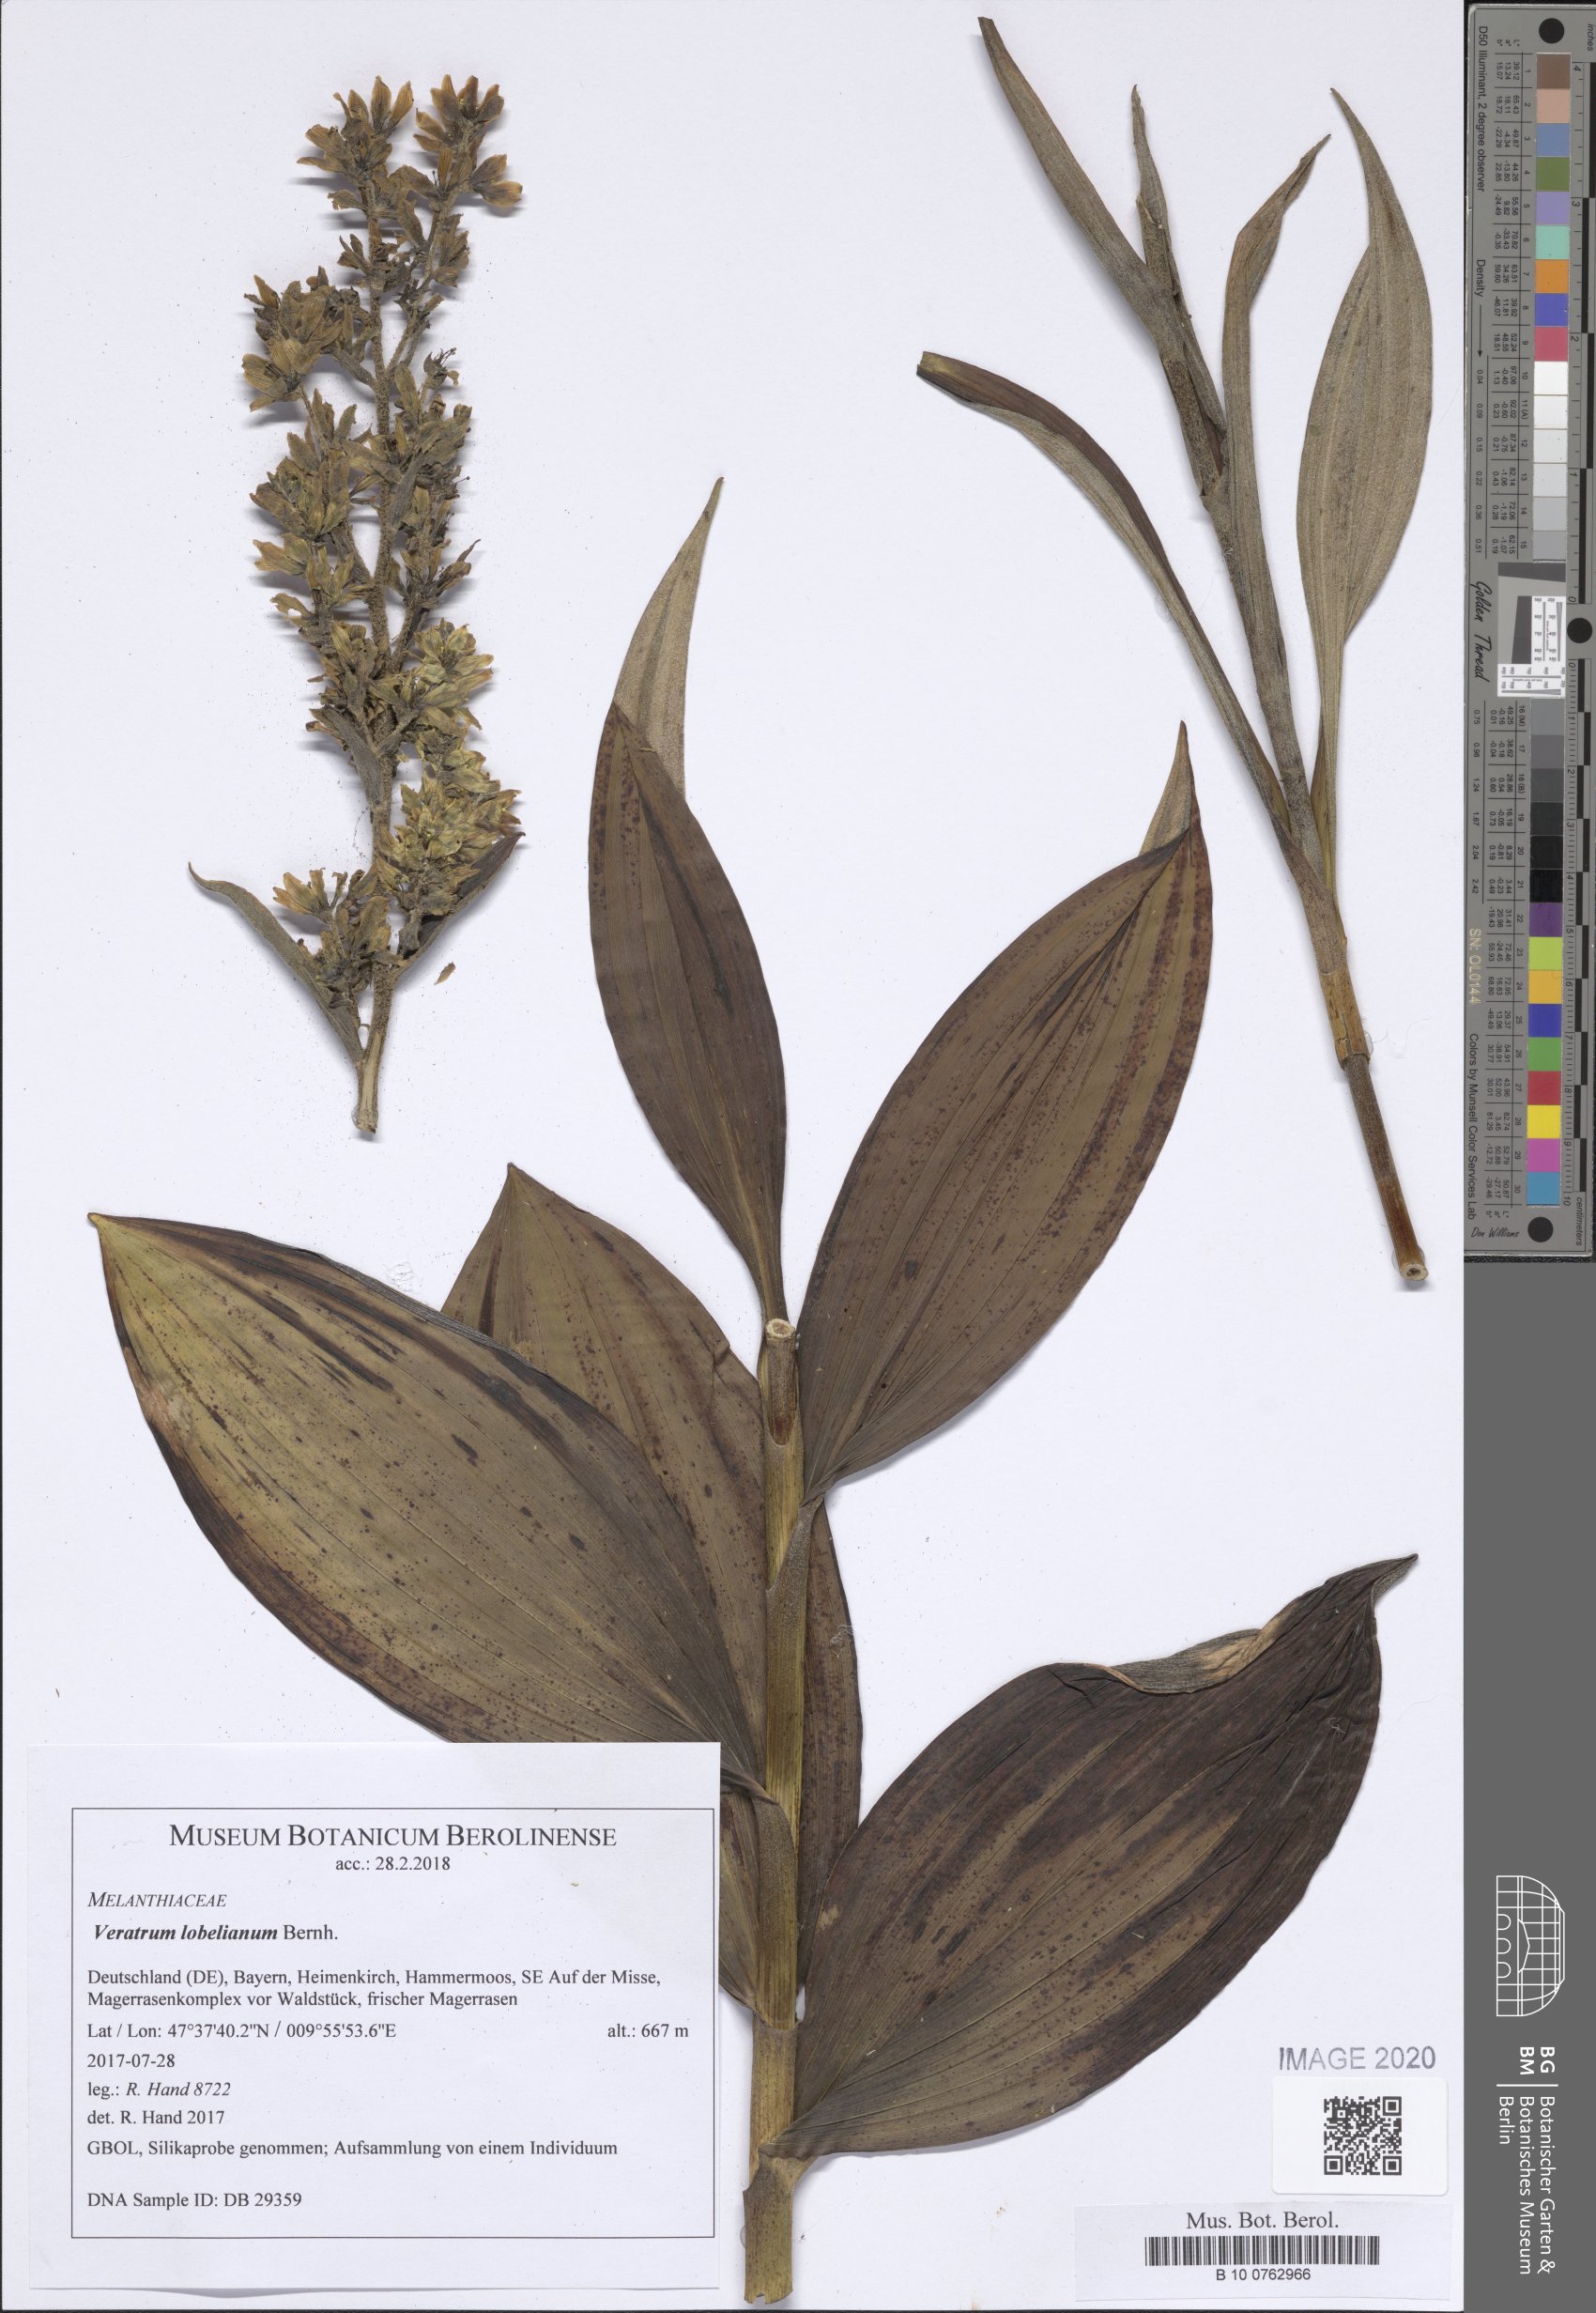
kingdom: Plantae
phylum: Tracheophyta
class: Liliopsida
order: Liliales
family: Melanthiaceae
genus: Veratrum
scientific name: Veratrum lobelianum
